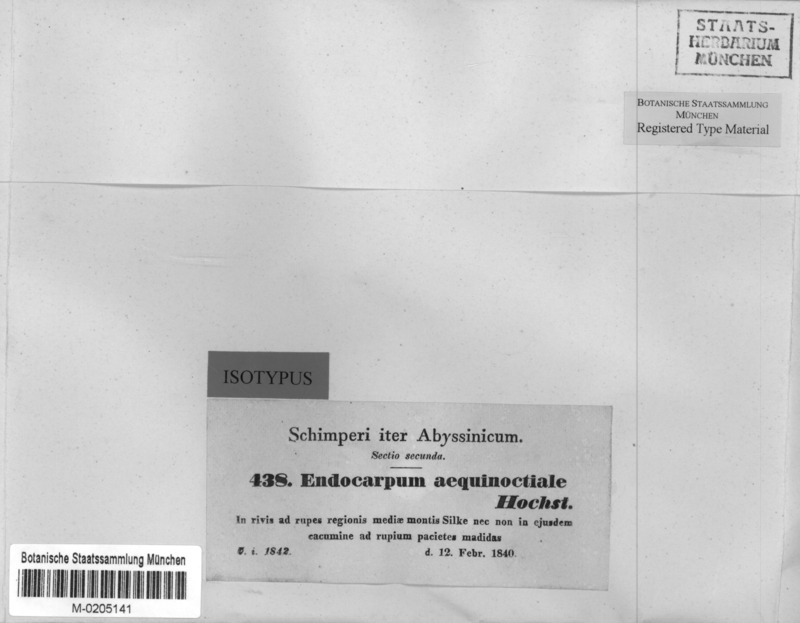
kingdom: Fungi
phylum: Ascomycota
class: Eurotiomycetes
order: Verrucariales
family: Verrucariaceae
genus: Dermatocarpon
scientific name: Dermatocarpon aequinoctiale
